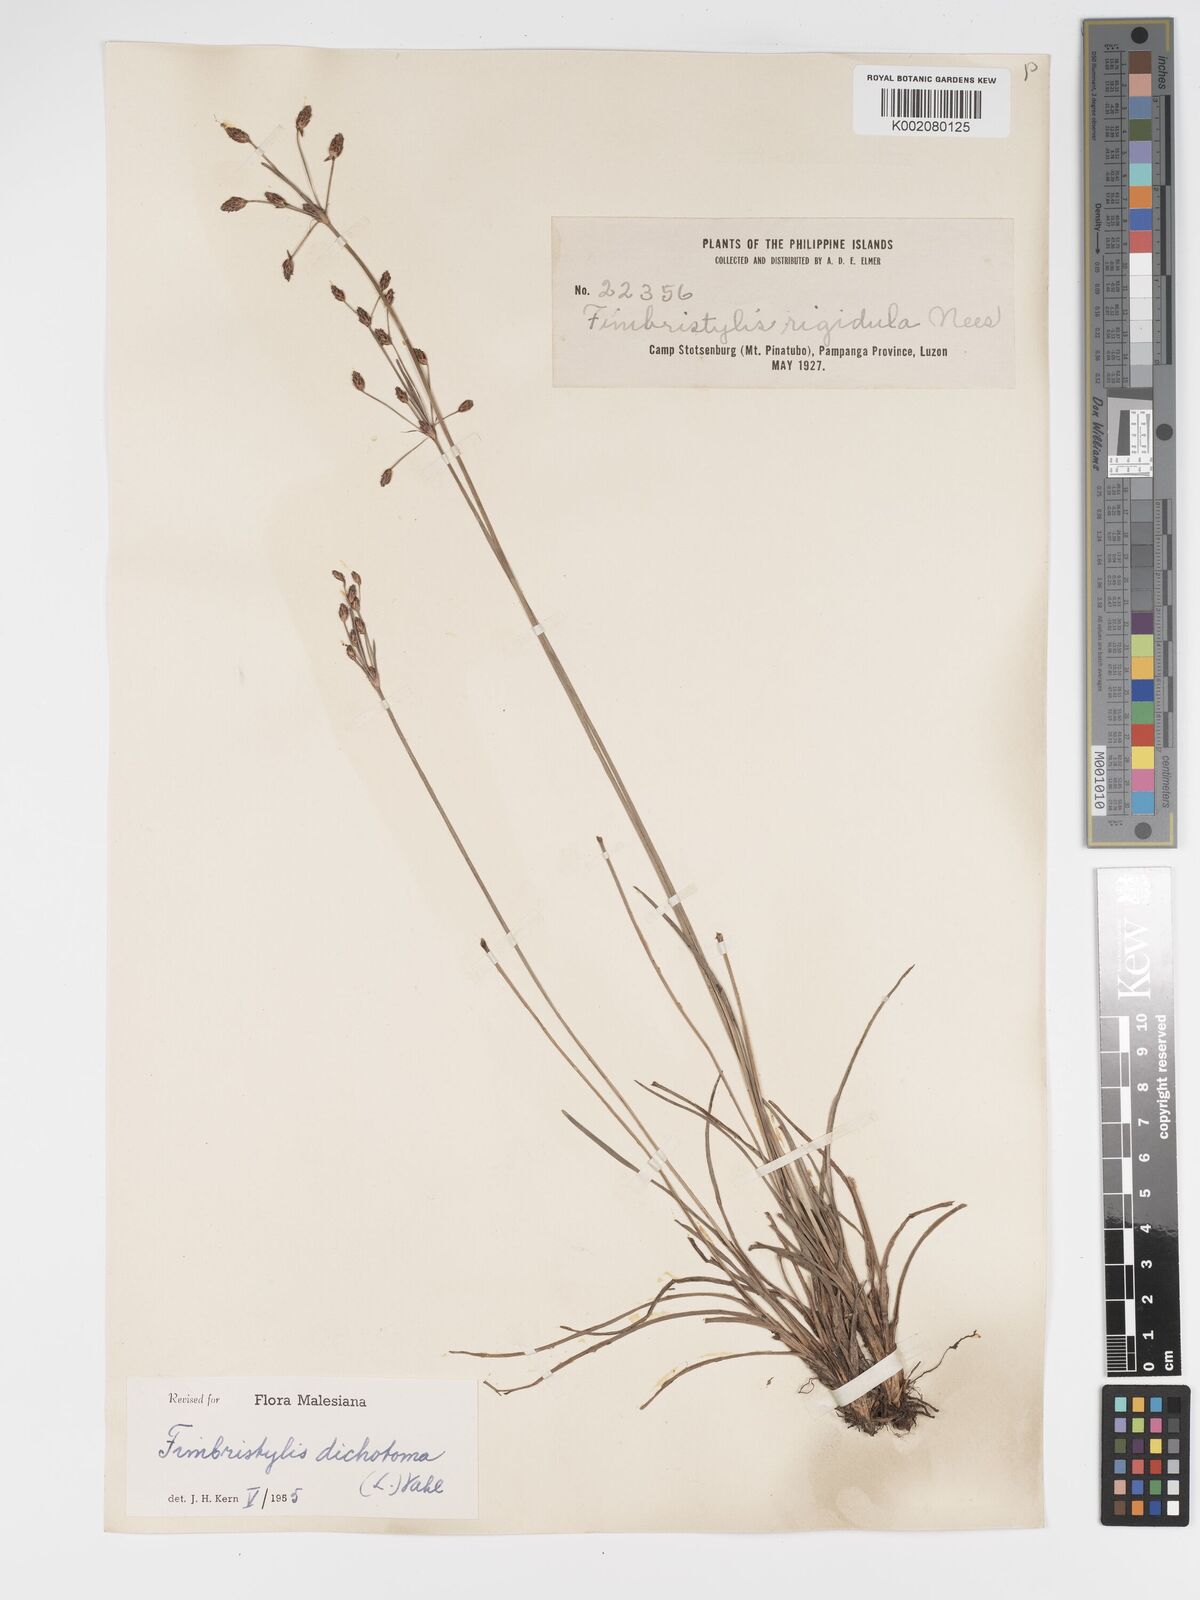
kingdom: Plantae
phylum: Tracheophyta
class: Liliopsida
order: Poales
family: Cyperaceae
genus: Fimbristylis
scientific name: Fimbristylis dichotoma
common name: Forked fimbry
